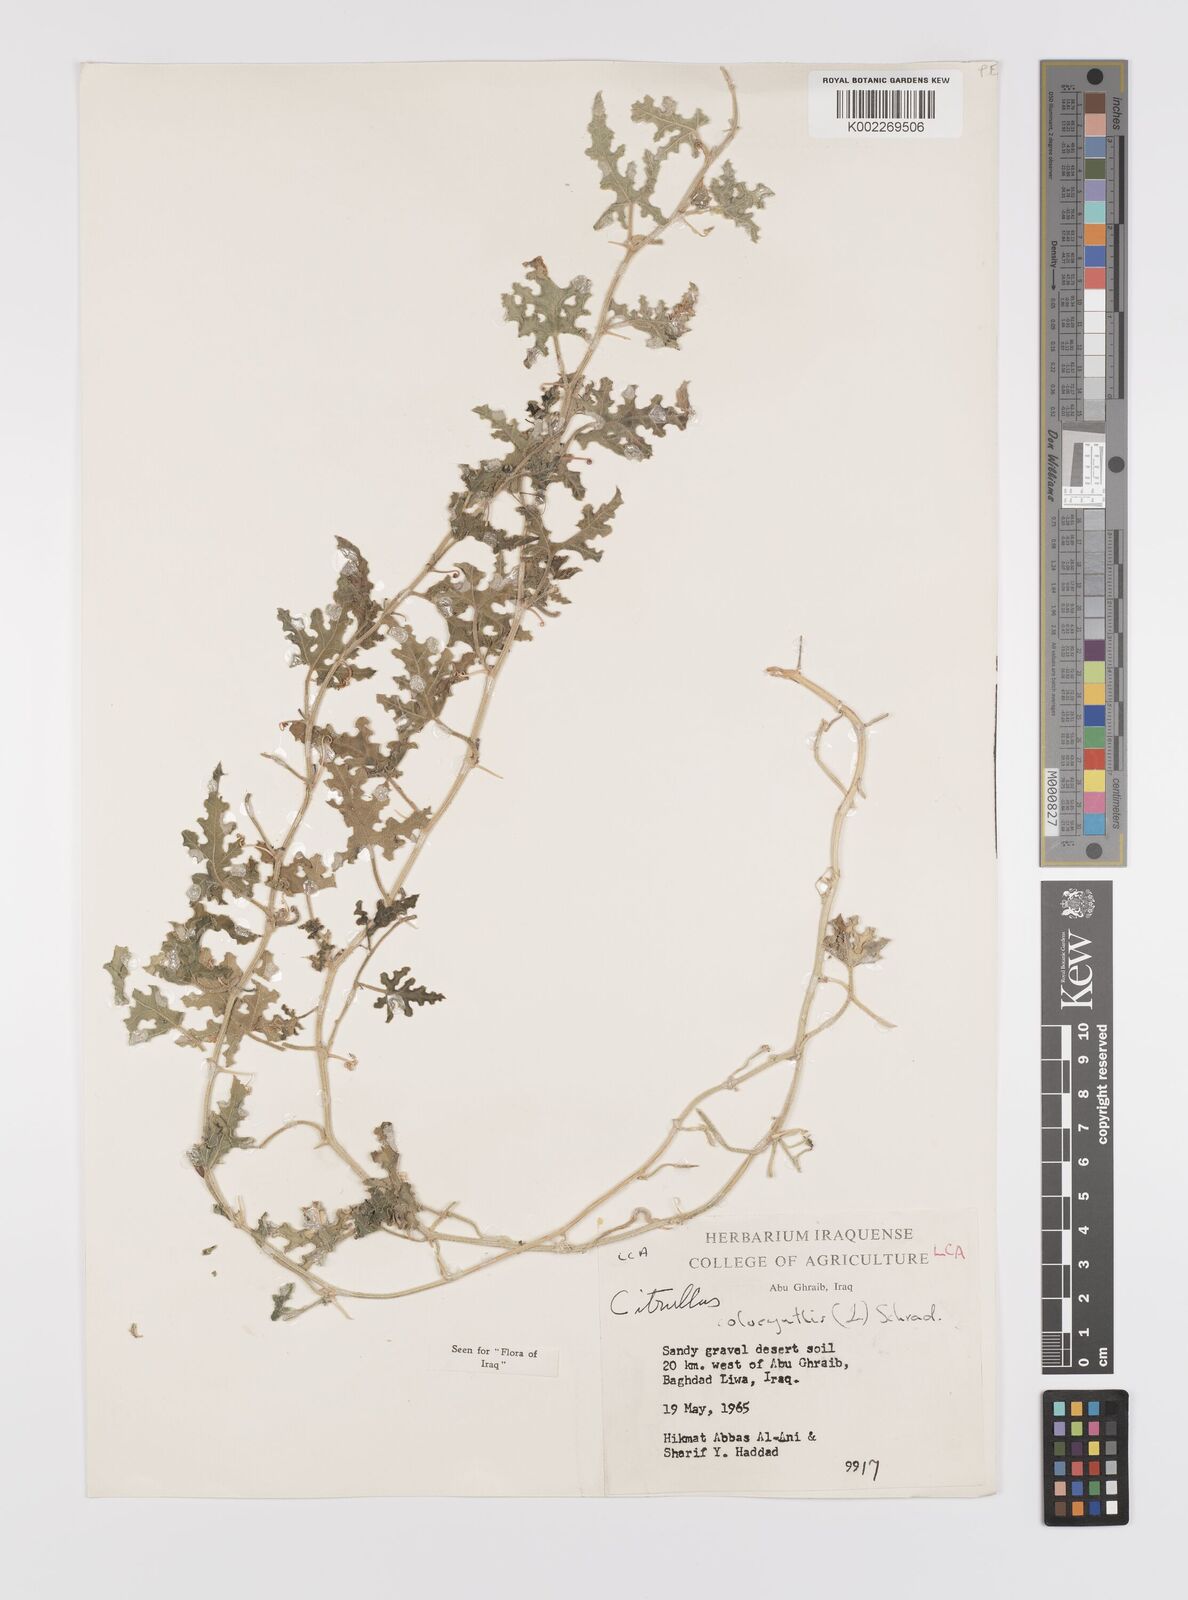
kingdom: Plantae
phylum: Tracheophyta
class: Magnoliopsida
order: Cucurbitales
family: Cucurbitaceae
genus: Citrullus
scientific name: Citrullus colocynthis
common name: Colocynth
